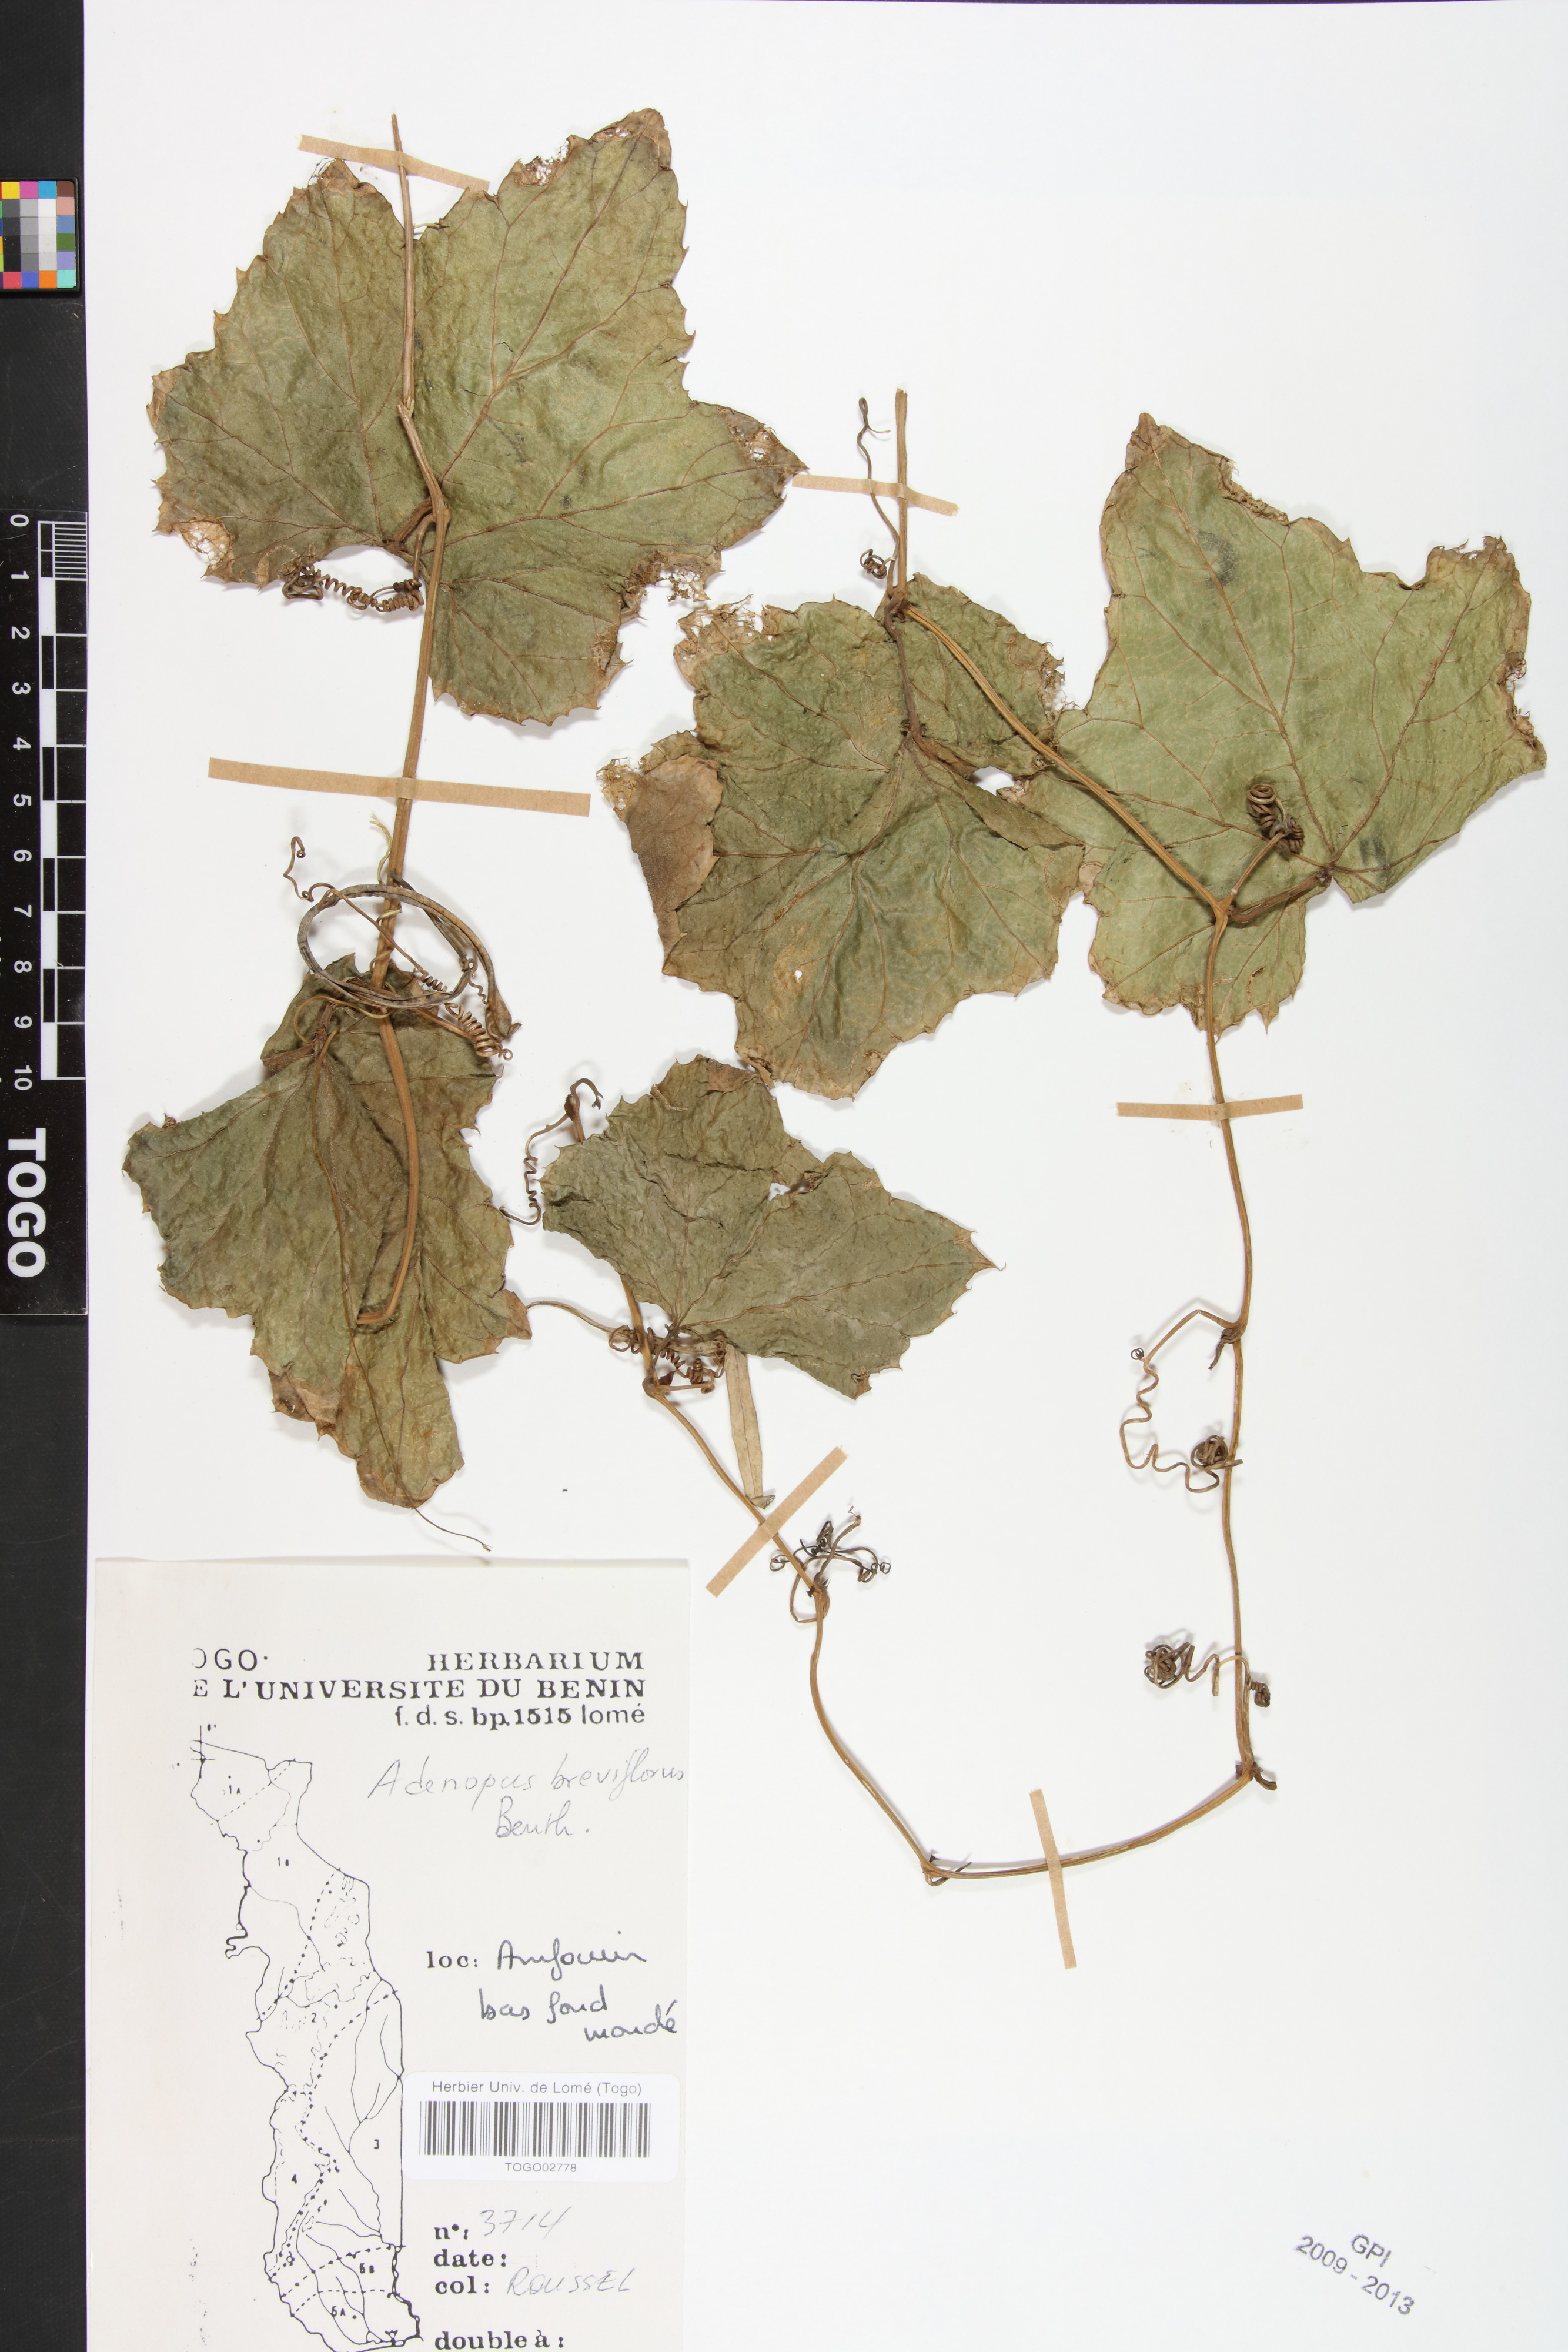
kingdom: Plantae
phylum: Tracheophyta
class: Magnoliopsida
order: Cucurbitales
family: Cucurbitaceae
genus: Lagenaria
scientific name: Lagenaria breviflora
